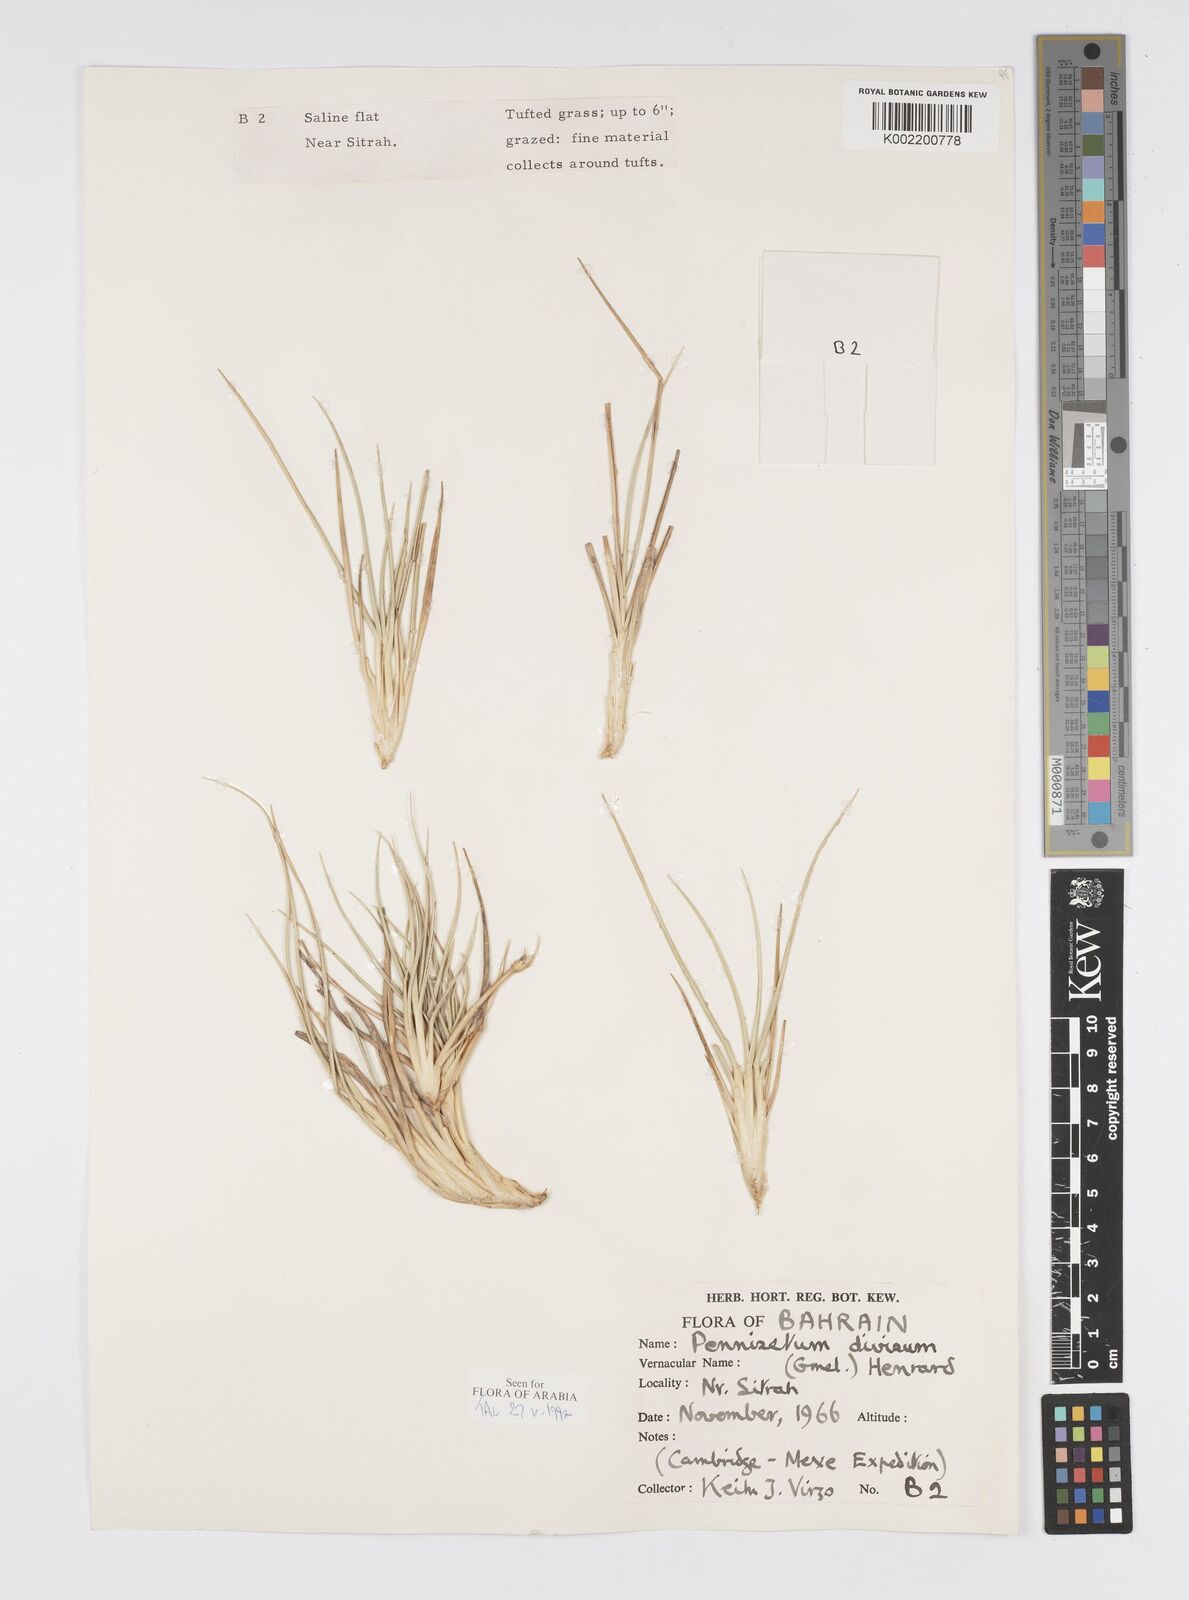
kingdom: Plantae
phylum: Tracheophyta
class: Liliopsida
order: Poales
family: Poaceae
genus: Cenchrus
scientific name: Cenchrus divisus
